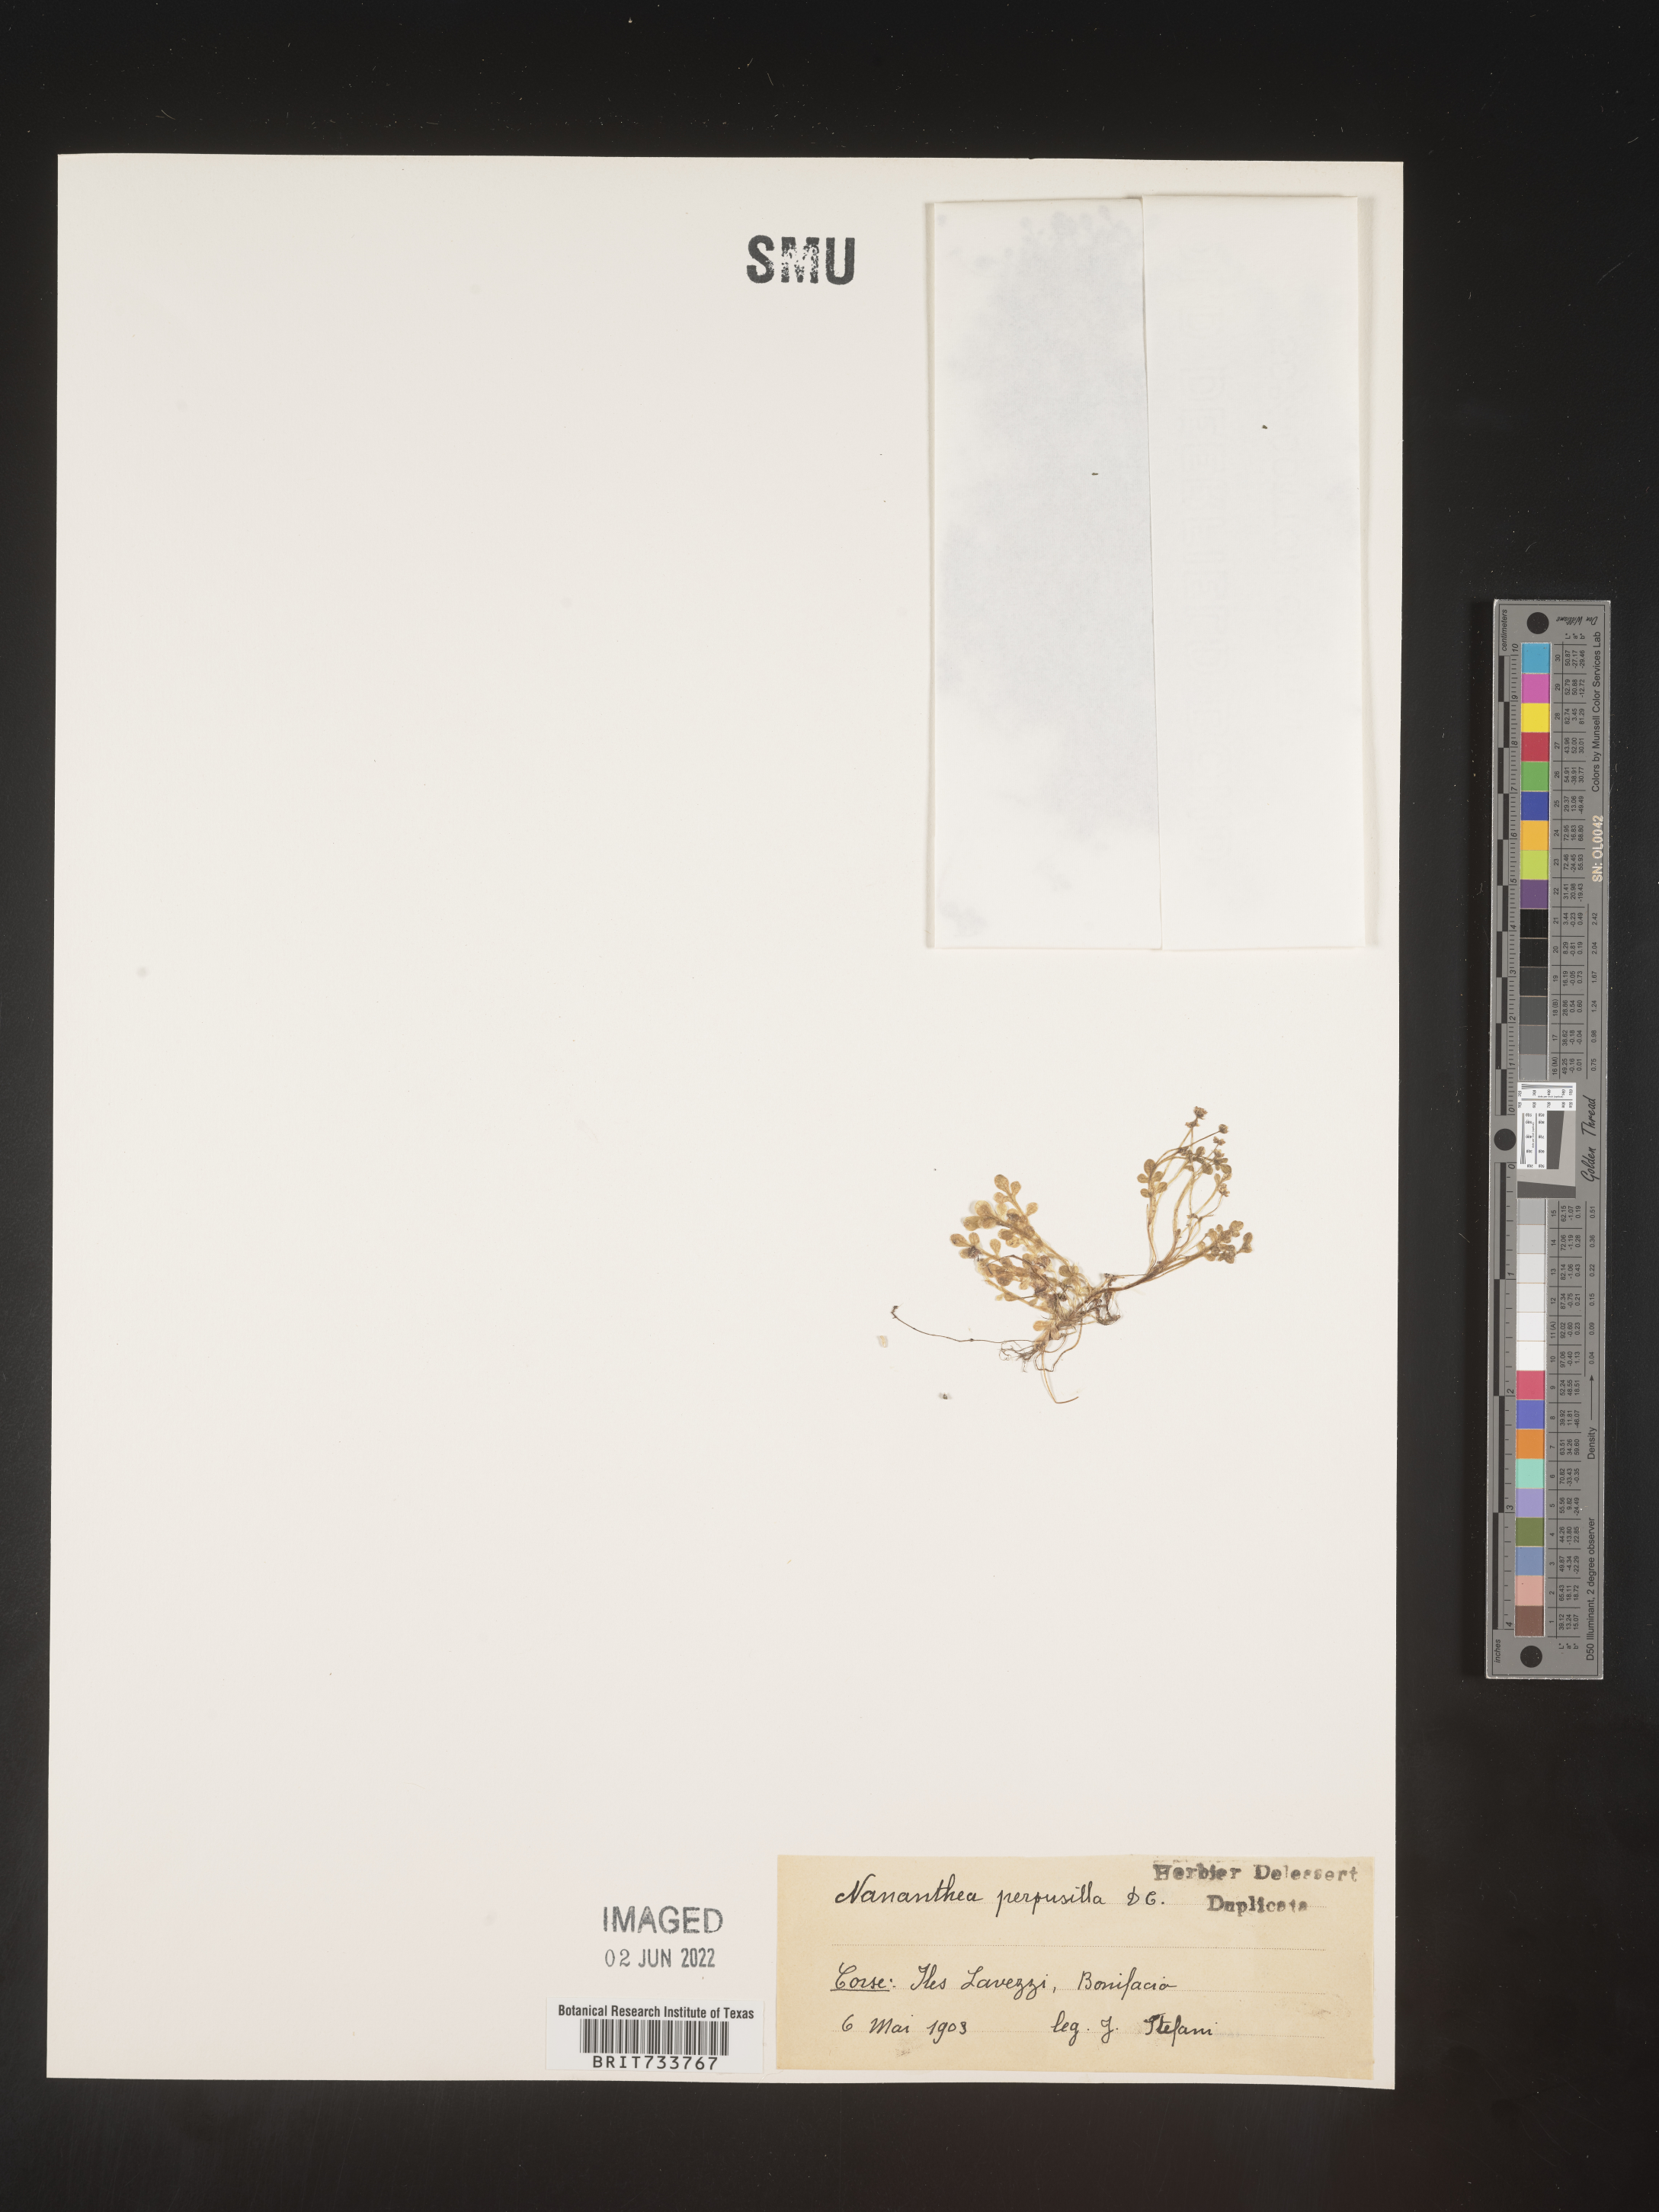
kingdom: Plantae
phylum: Tracheophyta
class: Magnoliopsida
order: Asterales
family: Asteraceae
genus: Nananthea
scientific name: Nananthea
